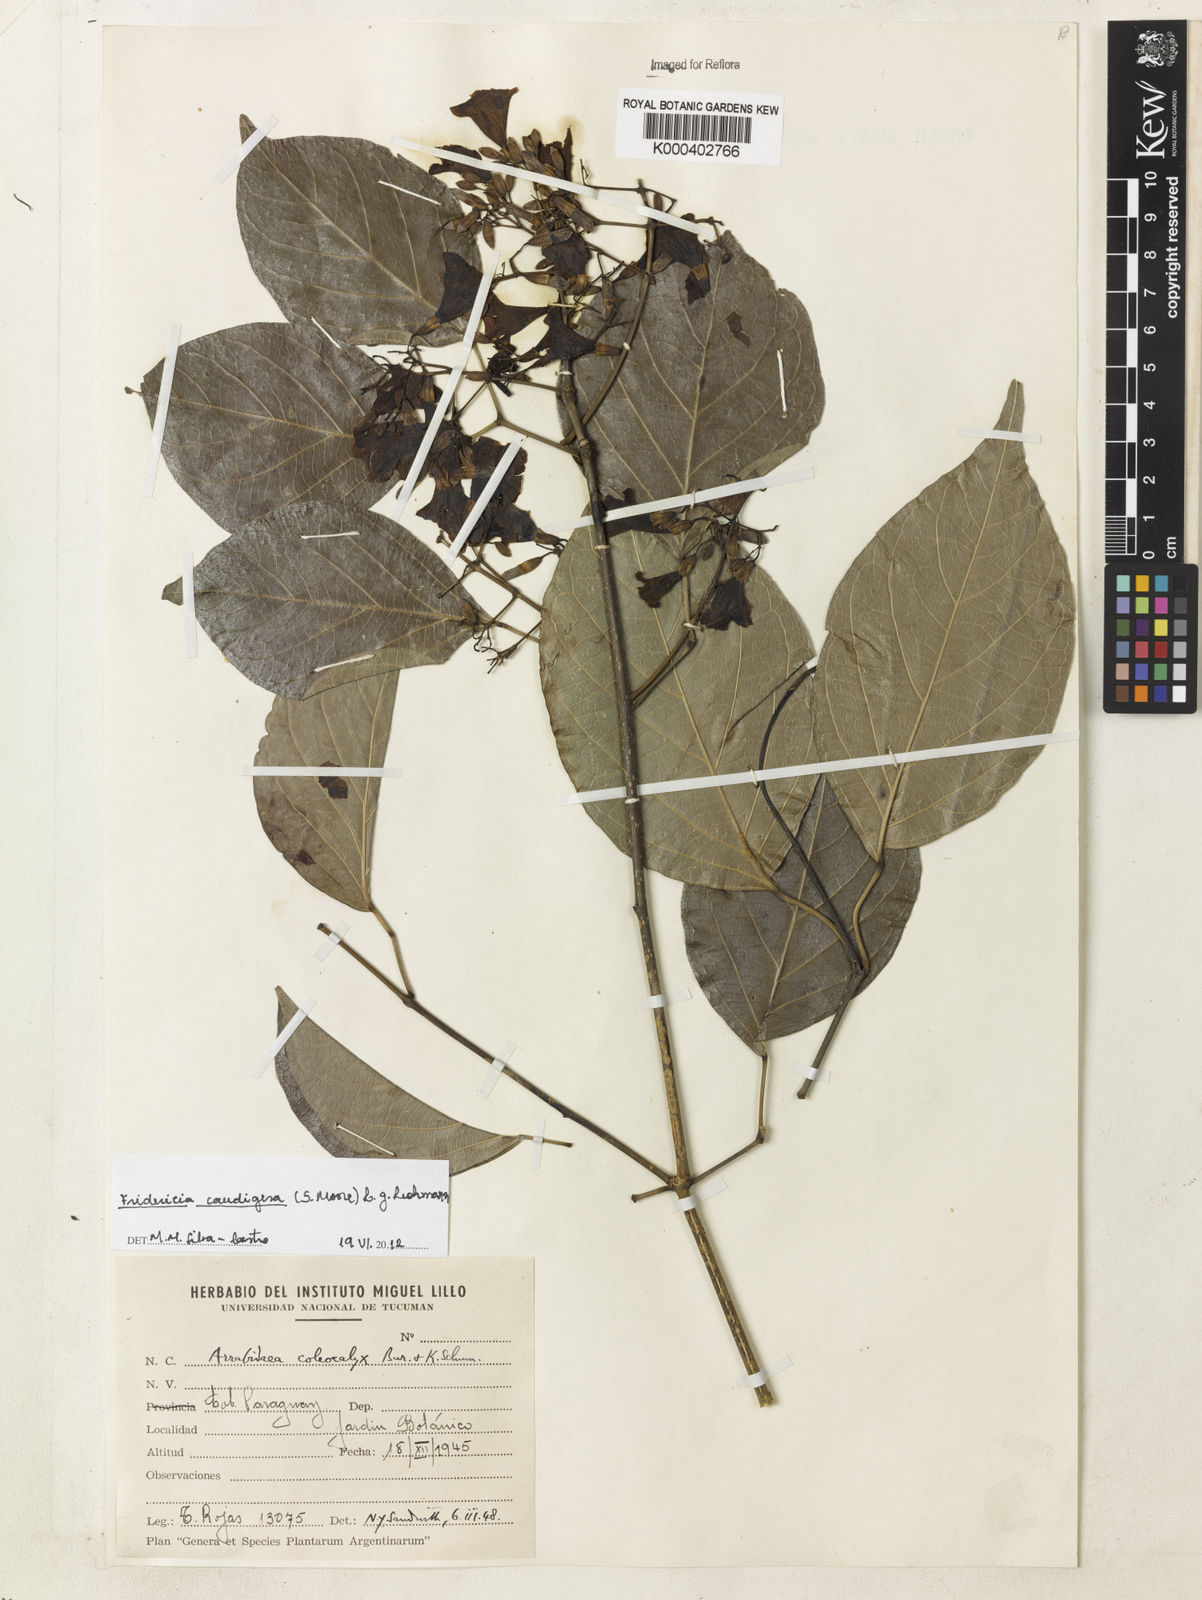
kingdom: Plantae
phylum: Tracheophyta
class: Magnoliopsida
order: Lamiales
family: Bignoniaceae
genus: Fridericia
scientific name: Fridericia caudigera
